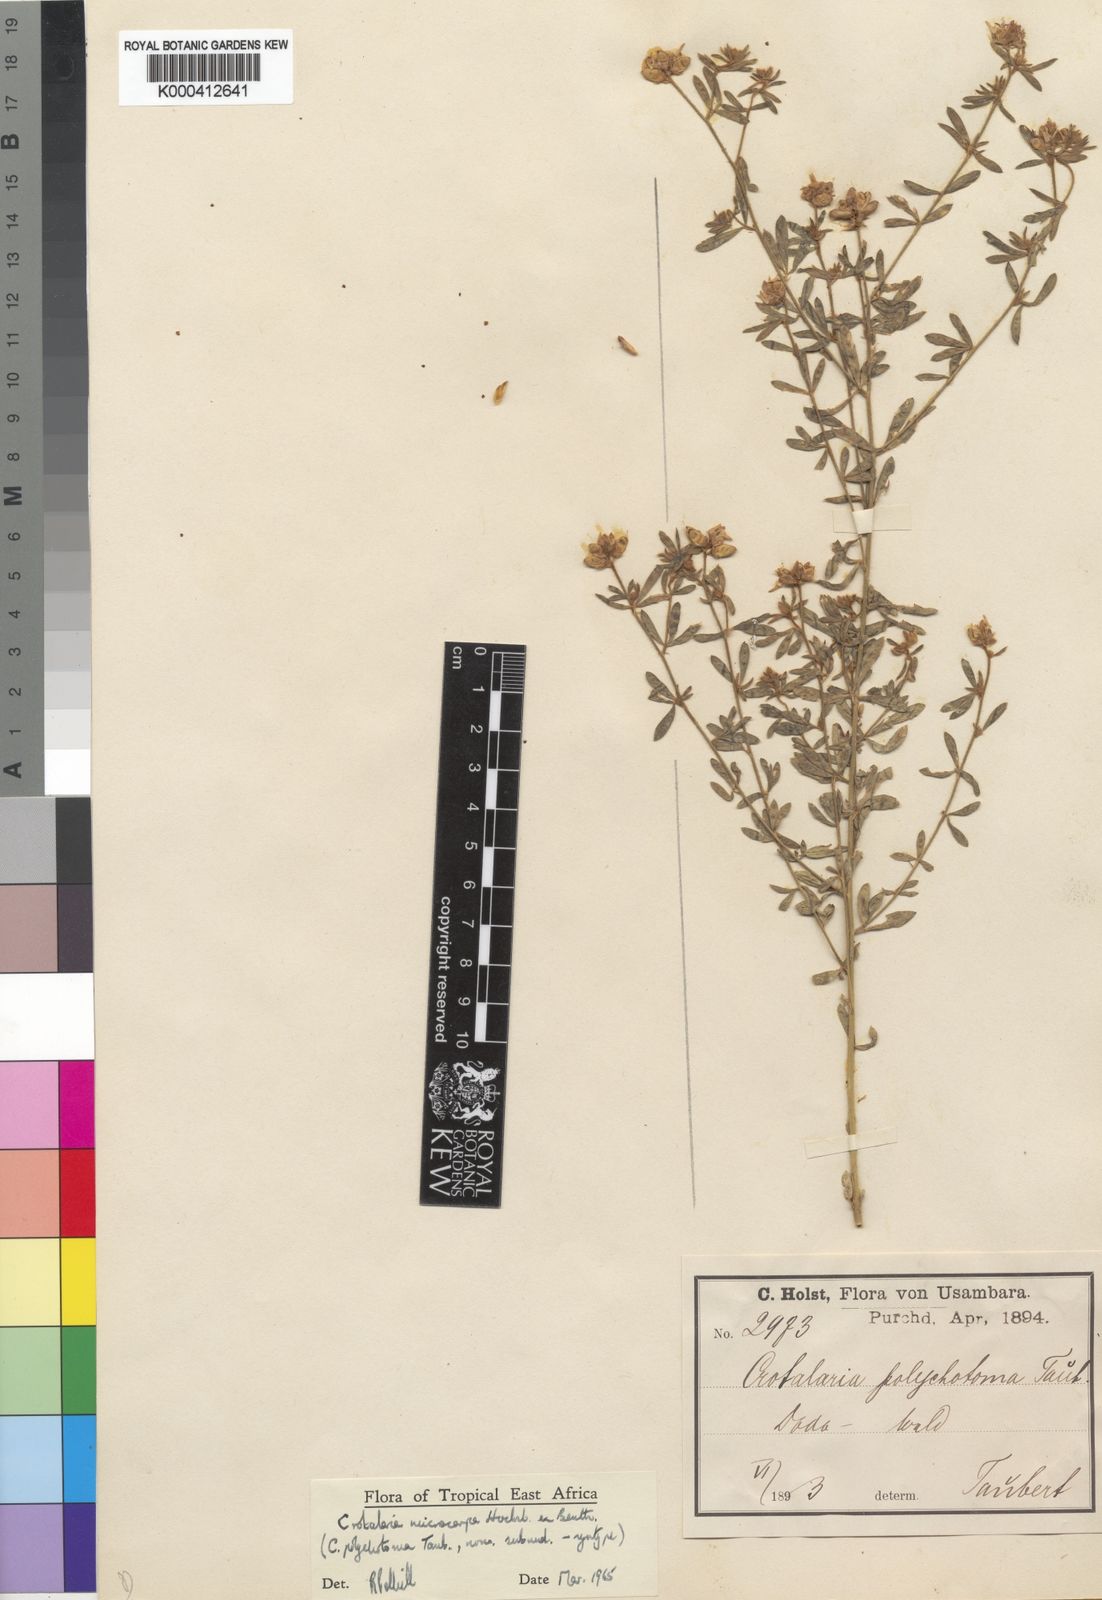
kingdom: Plantae
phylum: Tracheophyta
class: Magnoliopsida
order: Fabales
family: Fabaceae
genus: Crotalaria
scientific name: Crotalaria microcarpa
